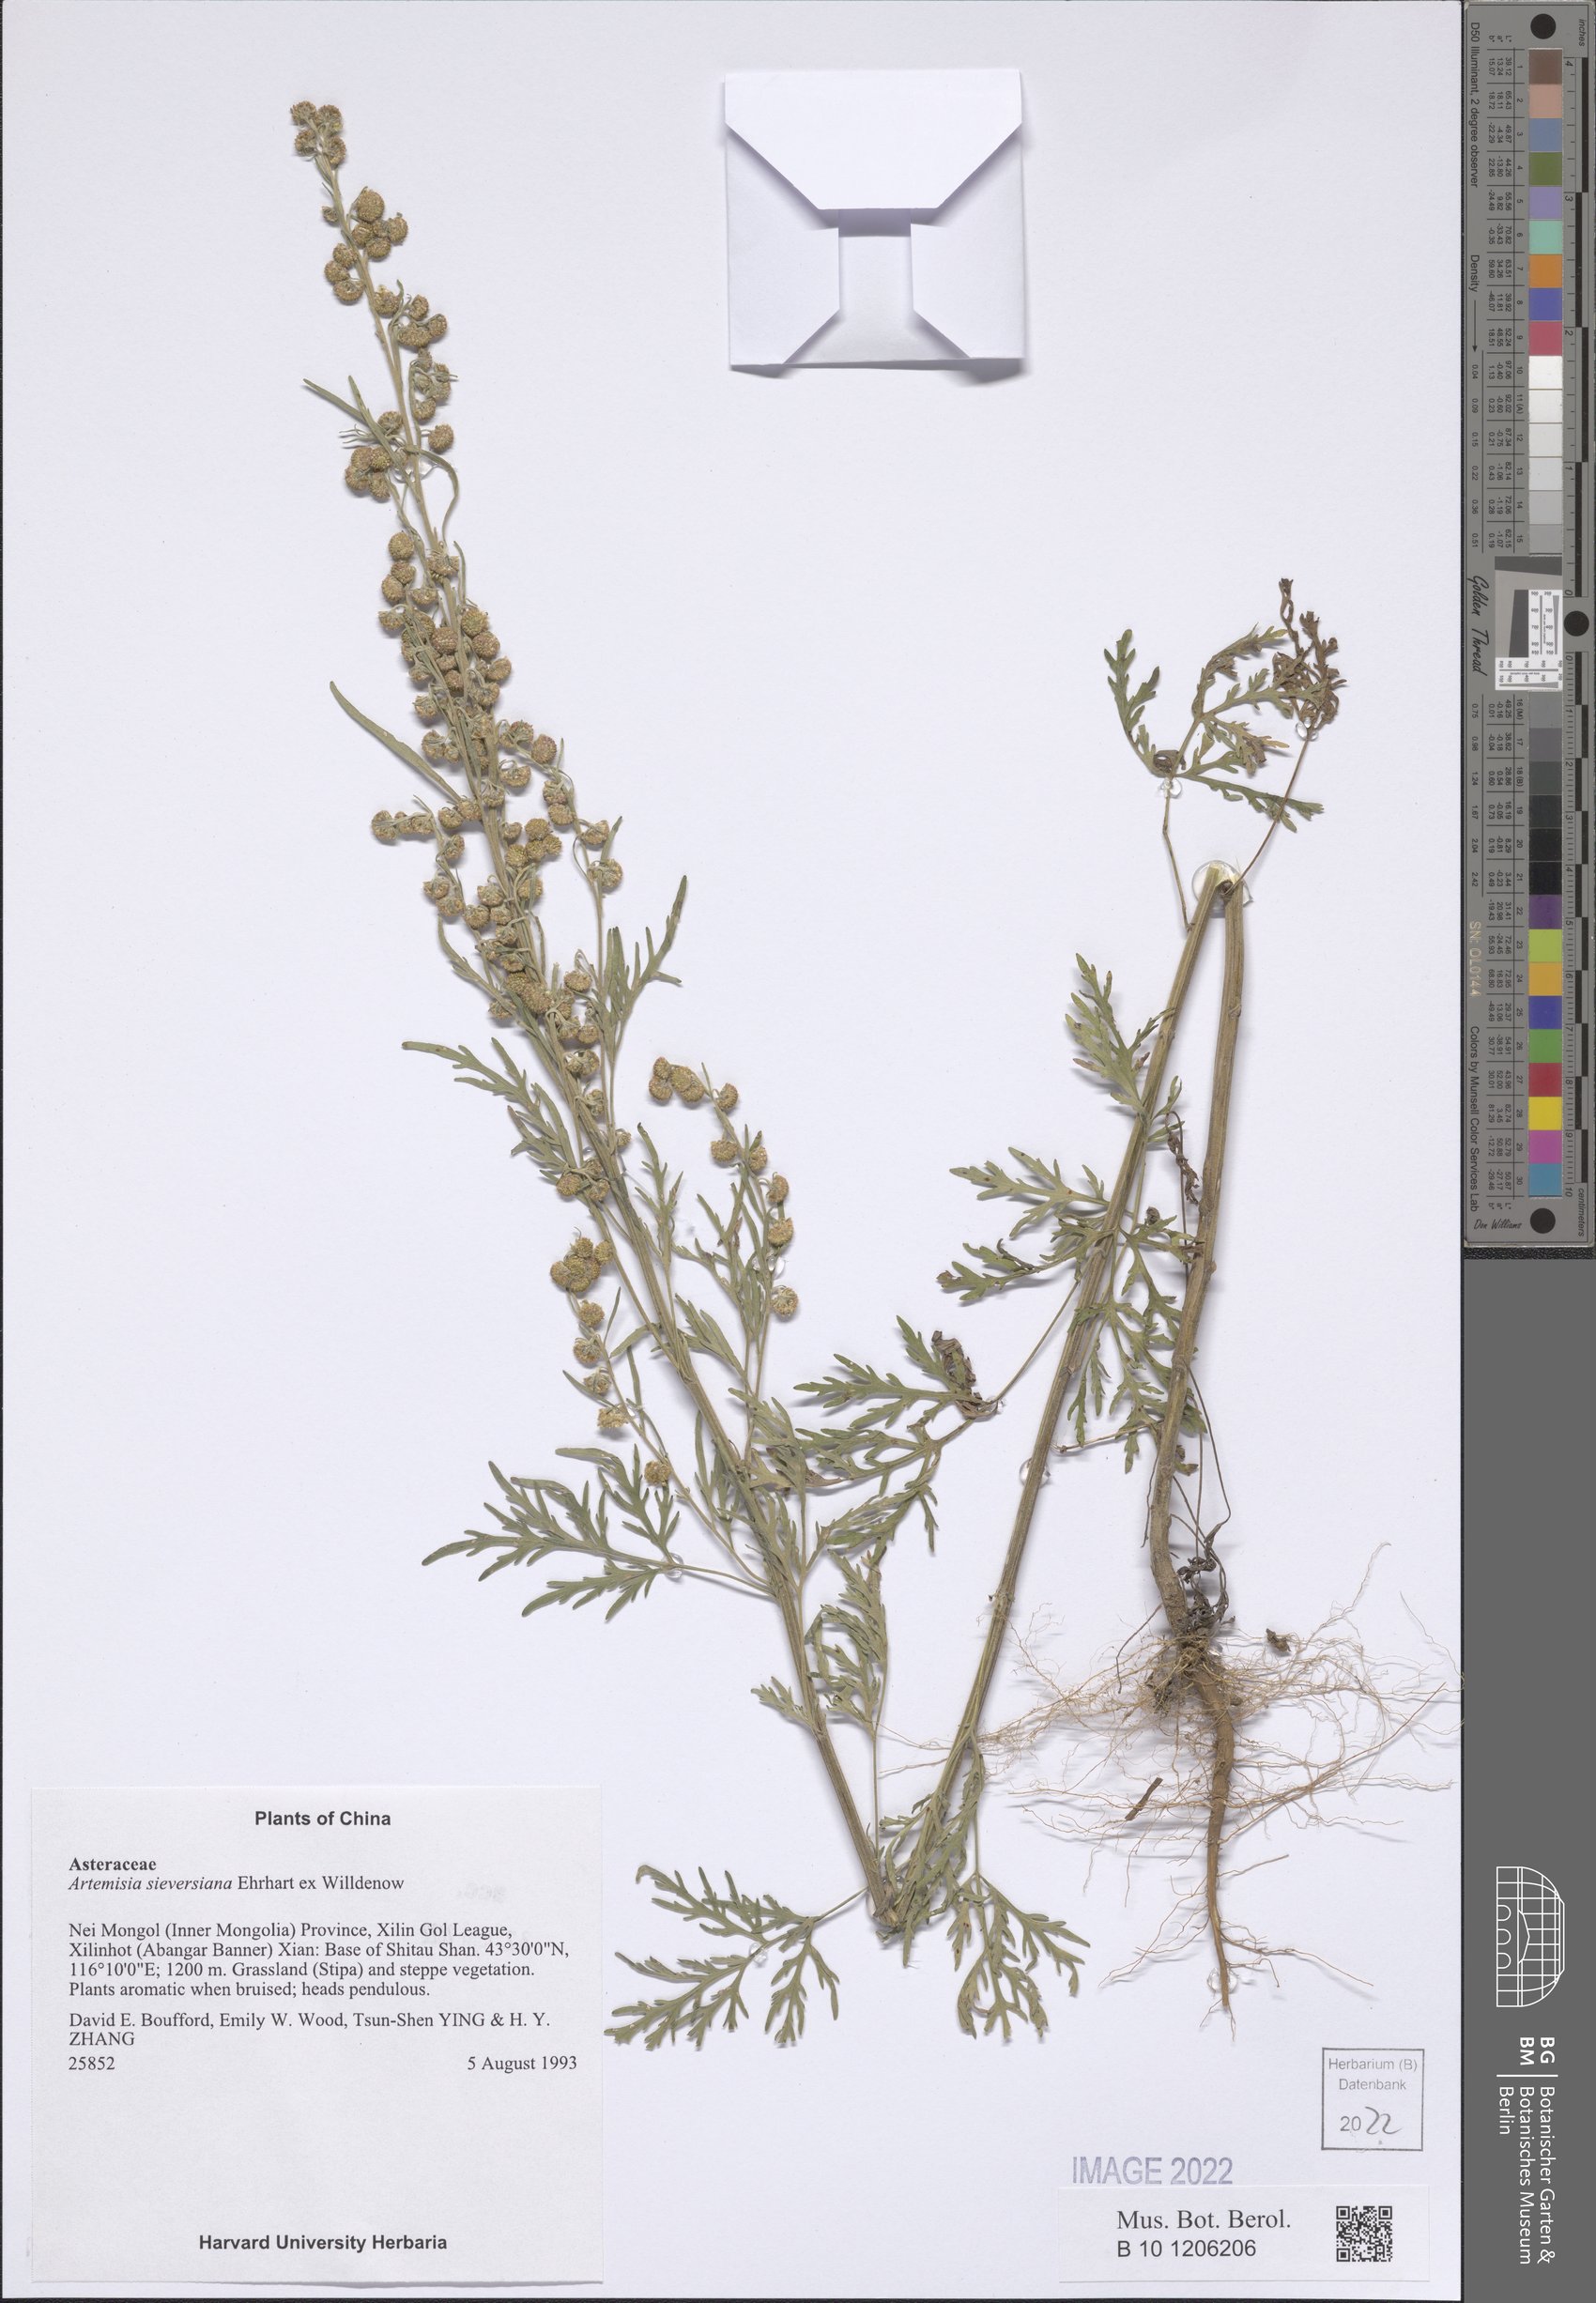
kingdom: Plantae
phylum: Tracheophyta
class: Magnoliopsida
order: Asterales
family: Asteraceae
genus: Artemisia
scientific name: Artemisia sieversiana
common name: Sieversian wormwood
